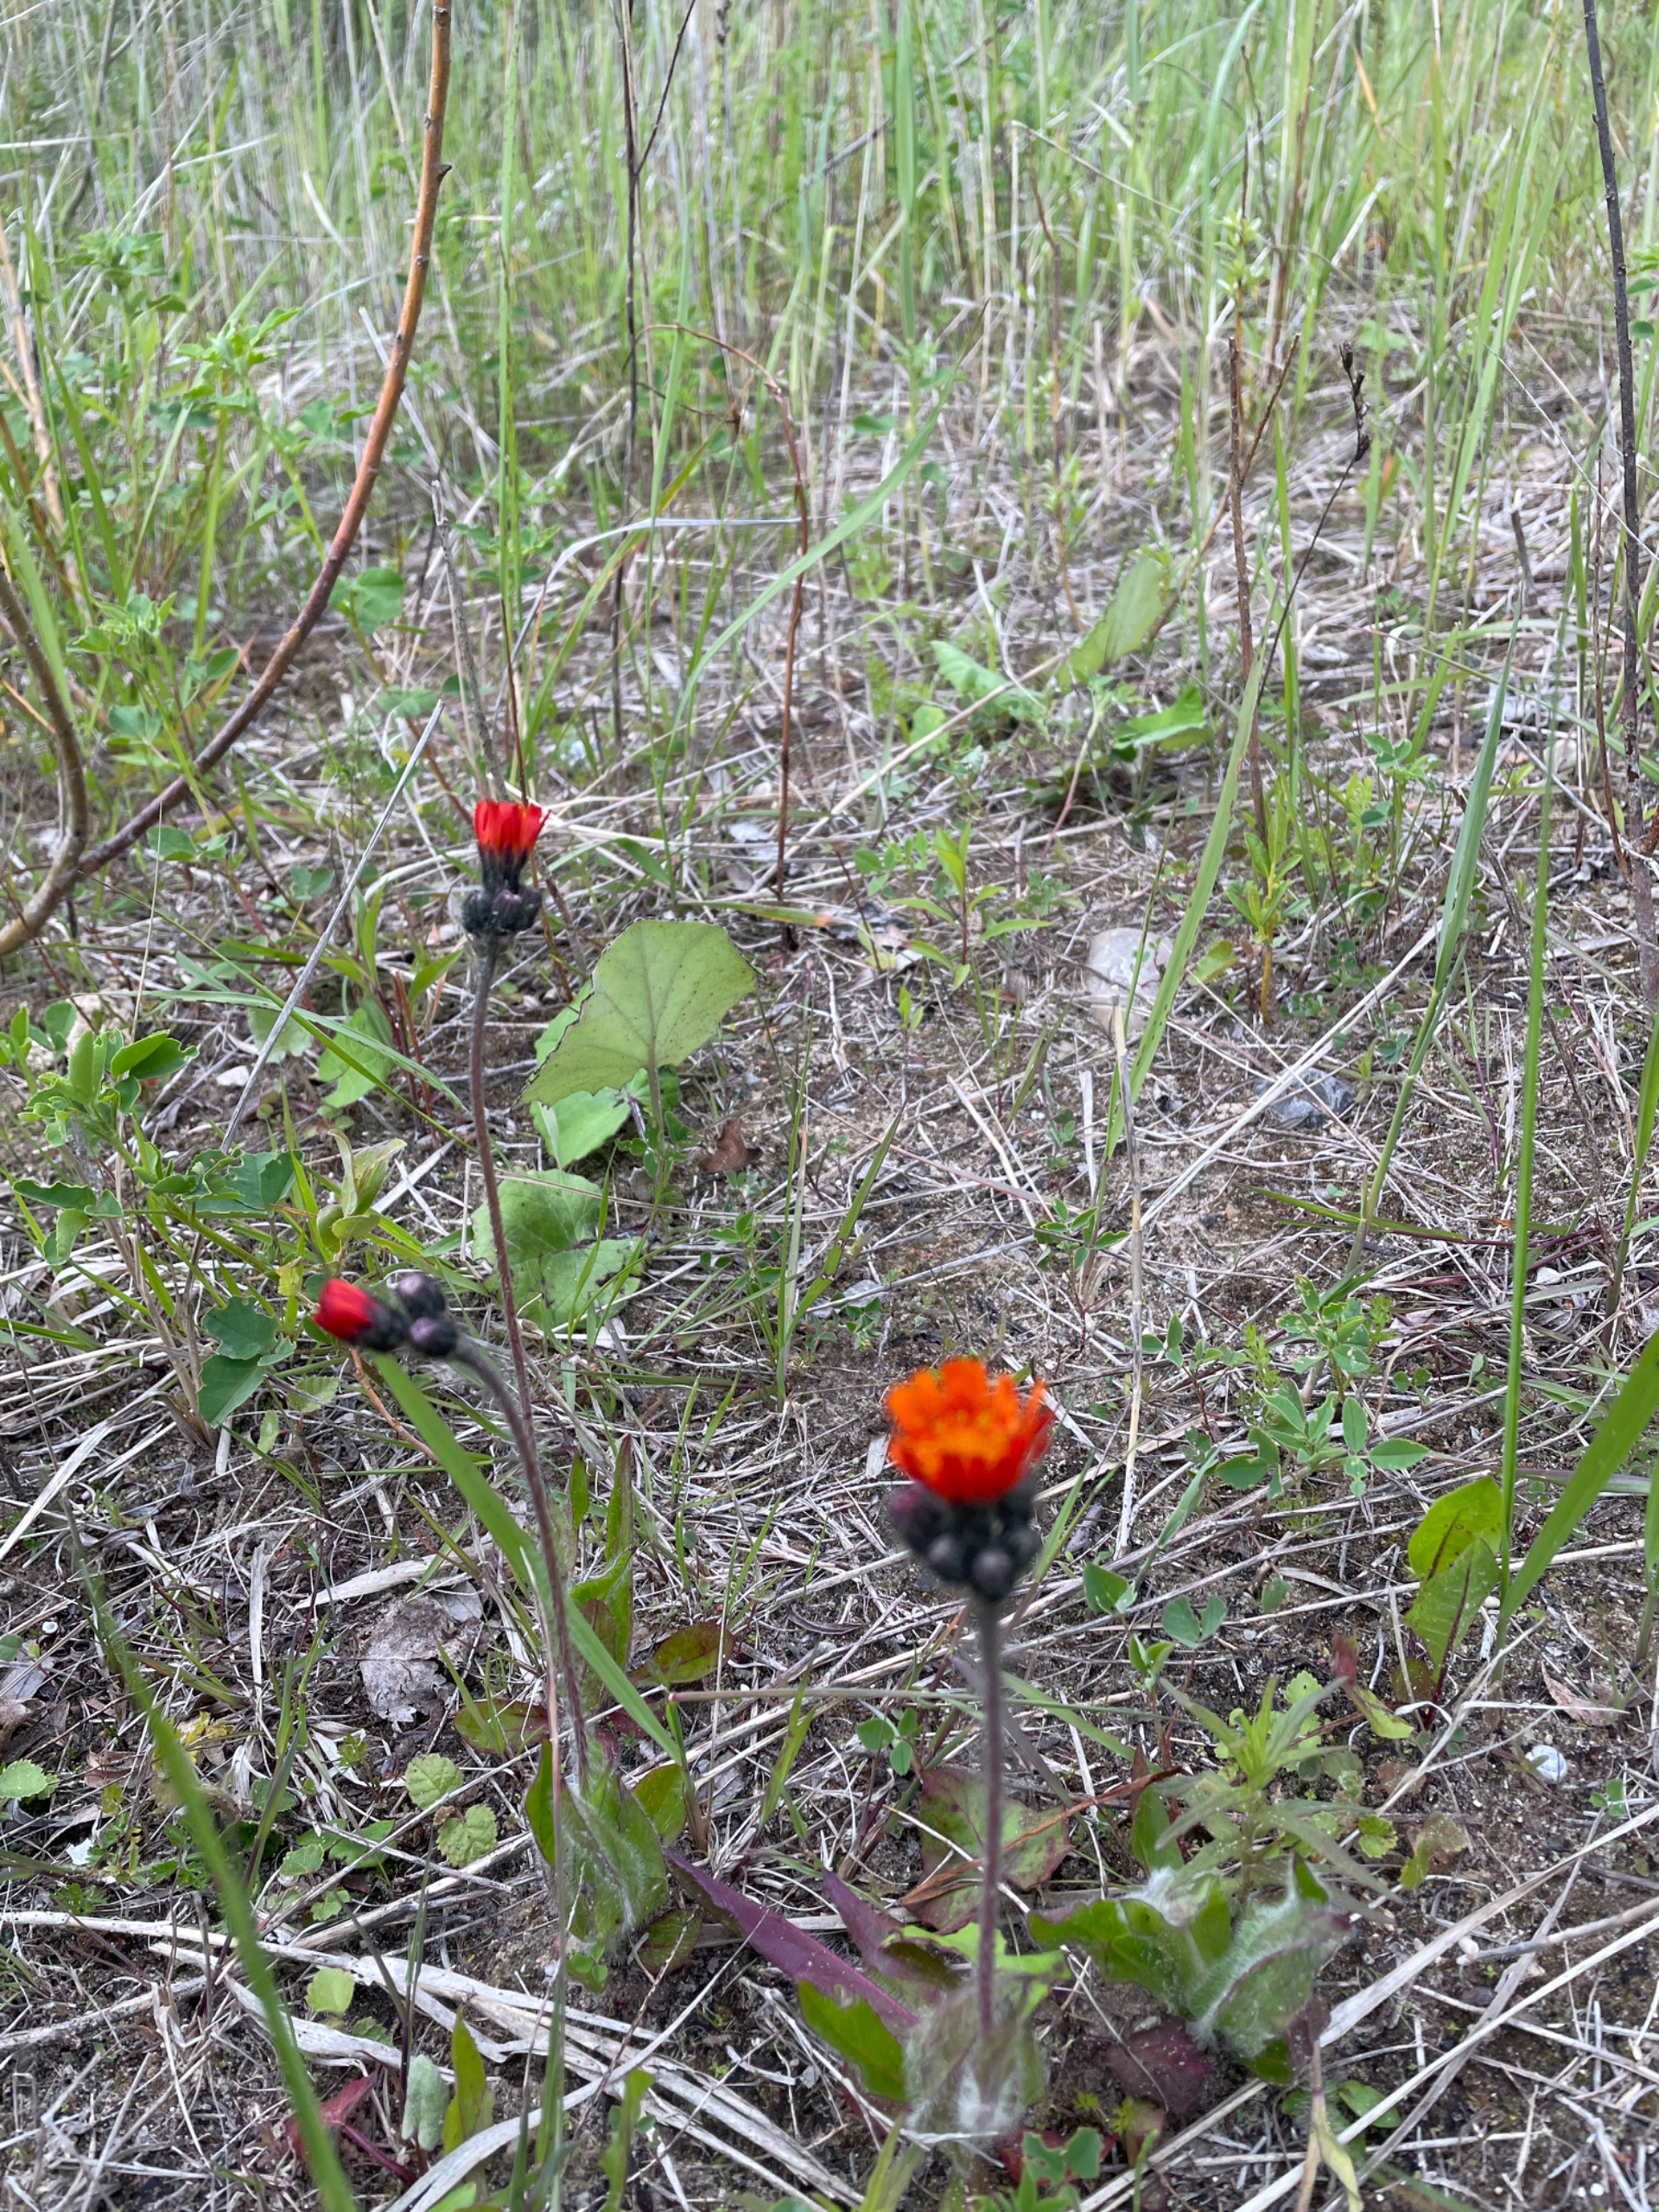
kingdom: Plantae
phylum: Tracheophyta
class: Magnoliopsida
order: Asterales
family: Asteraceae
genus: Pilosella
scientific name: Pilosella aurantiaca
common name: Pomerans-høgeurt
